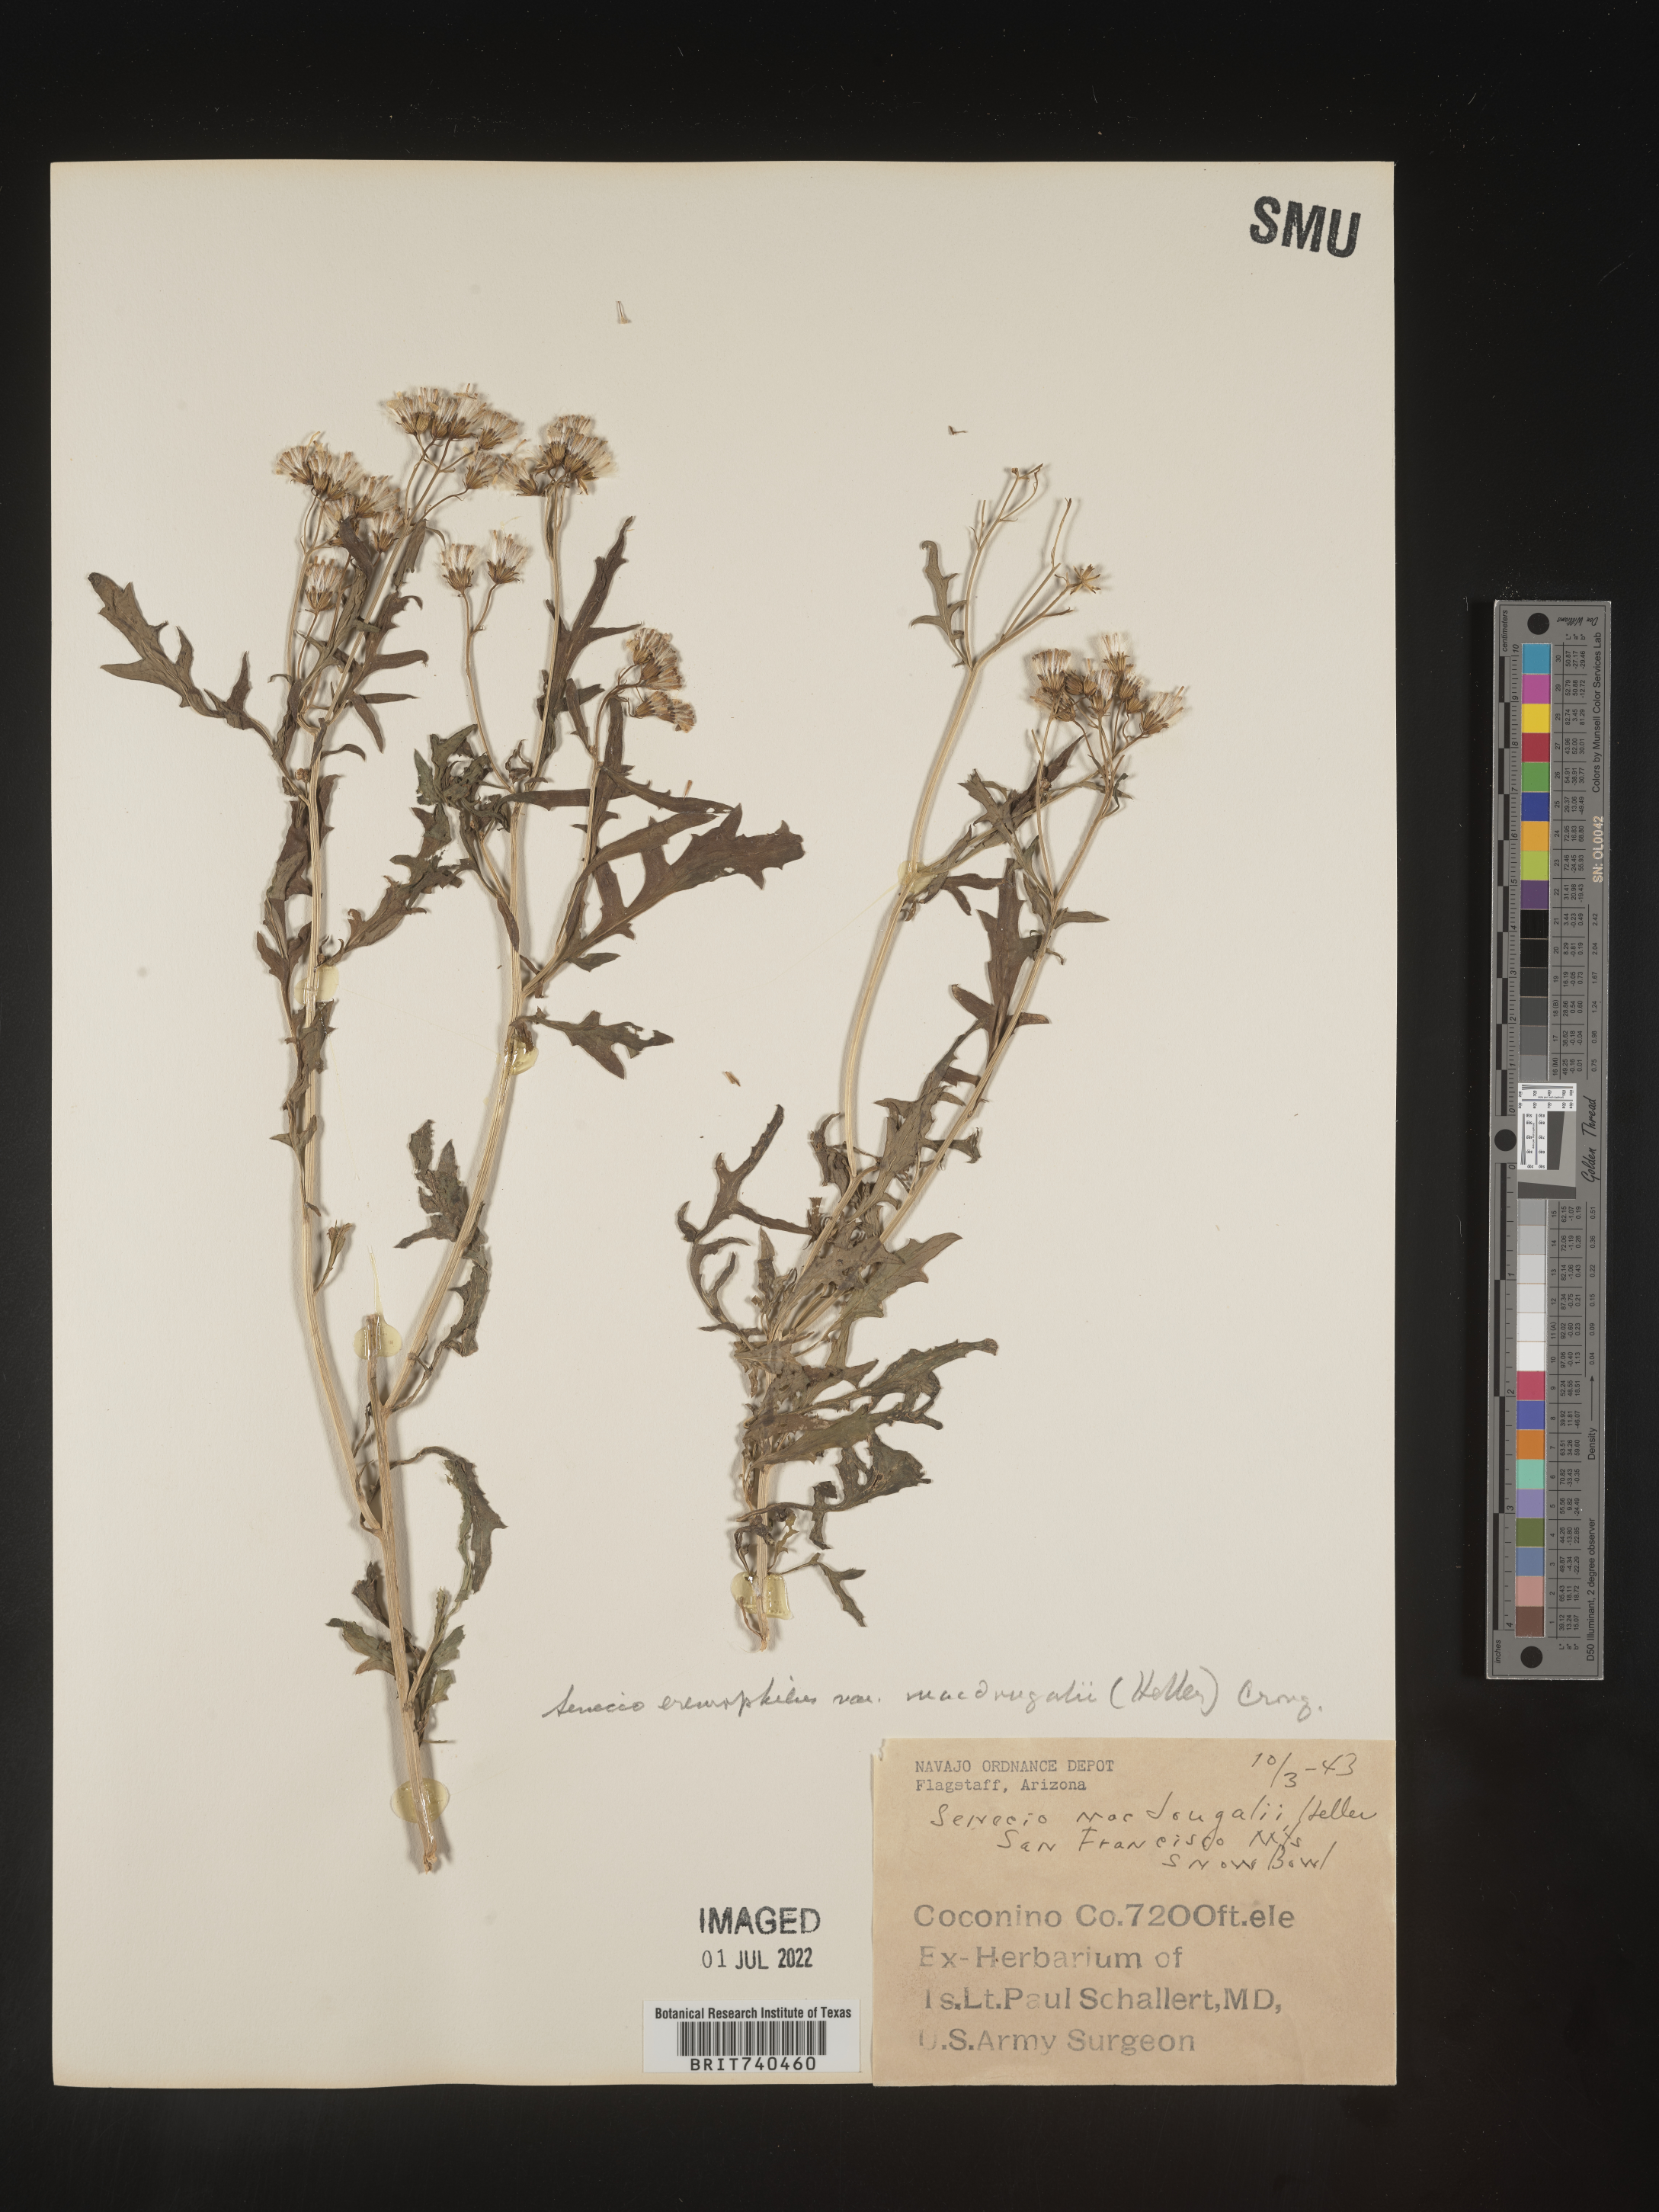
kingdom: Plantae
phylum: Tracheophyta
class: Magnoliopsida
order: Asterales
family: Asteraceae
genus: Senecio
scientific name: Senecio eremophilus
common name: Desert ragwort
